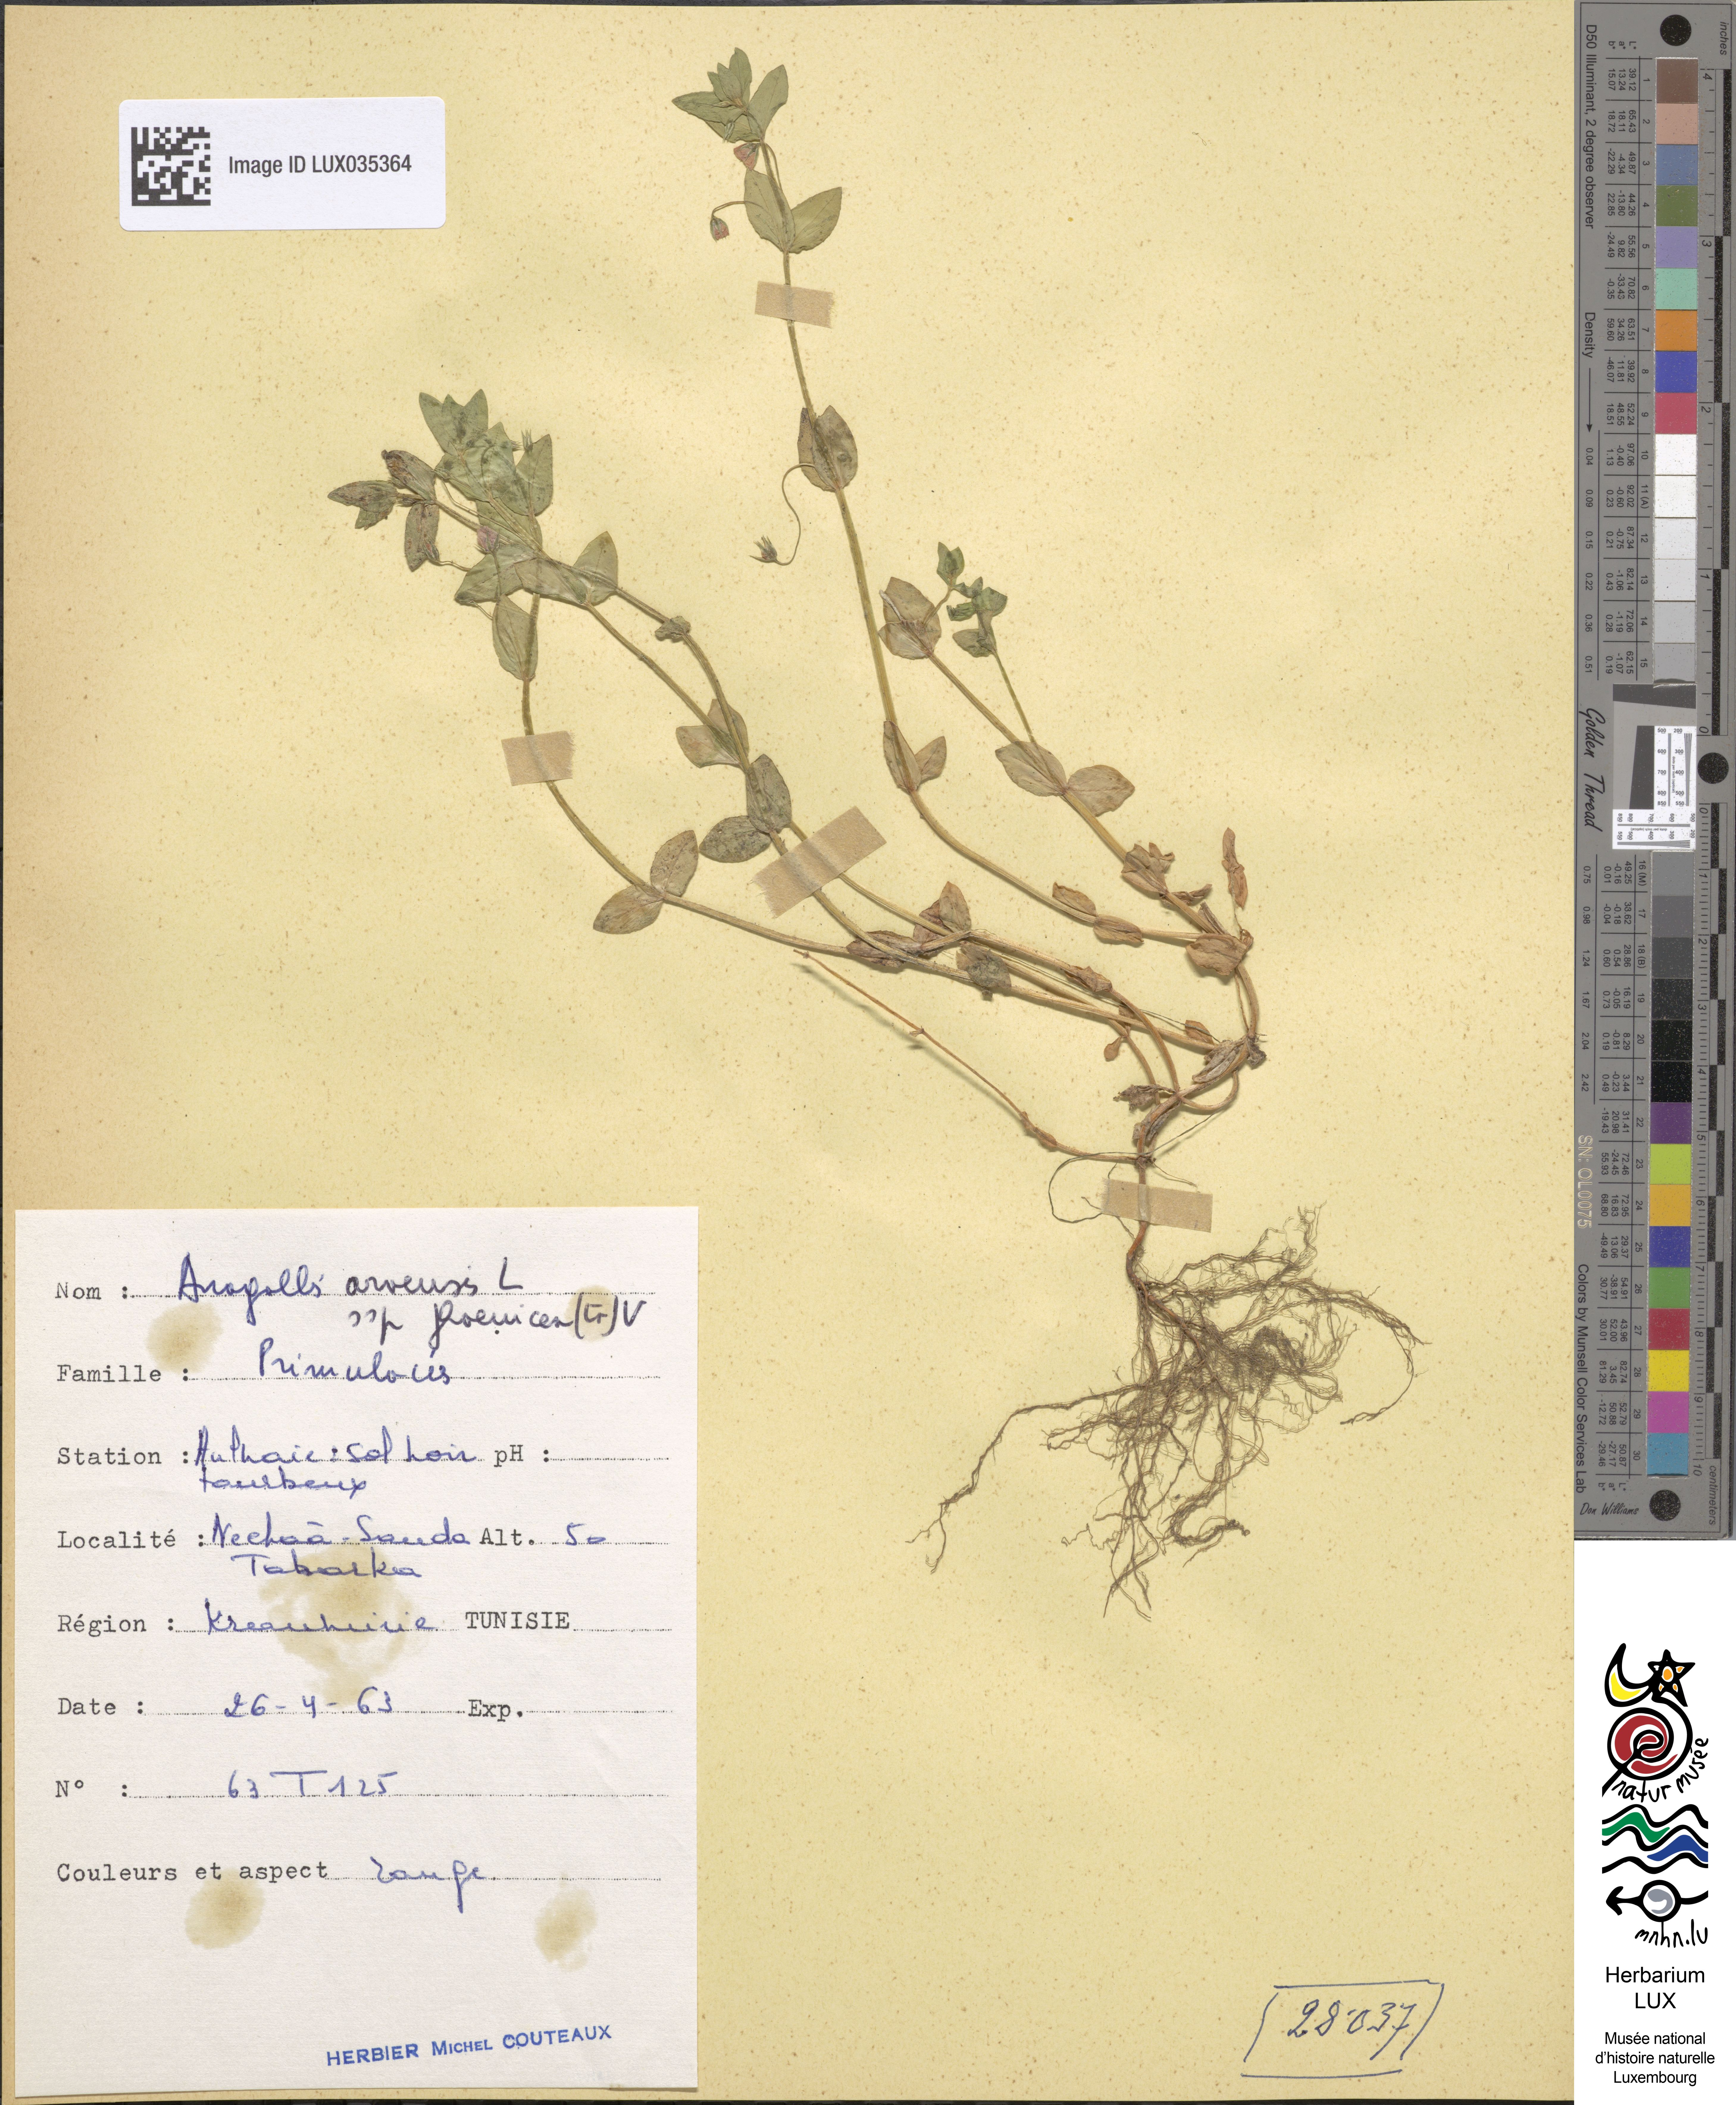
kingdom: Plantae
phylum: Tracheophyta
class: Magnoliopsida
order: Ericales
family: Primulaceae
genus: Lysimachia
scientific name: Lysimachia arvensis
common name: Scarlet pimpernel
